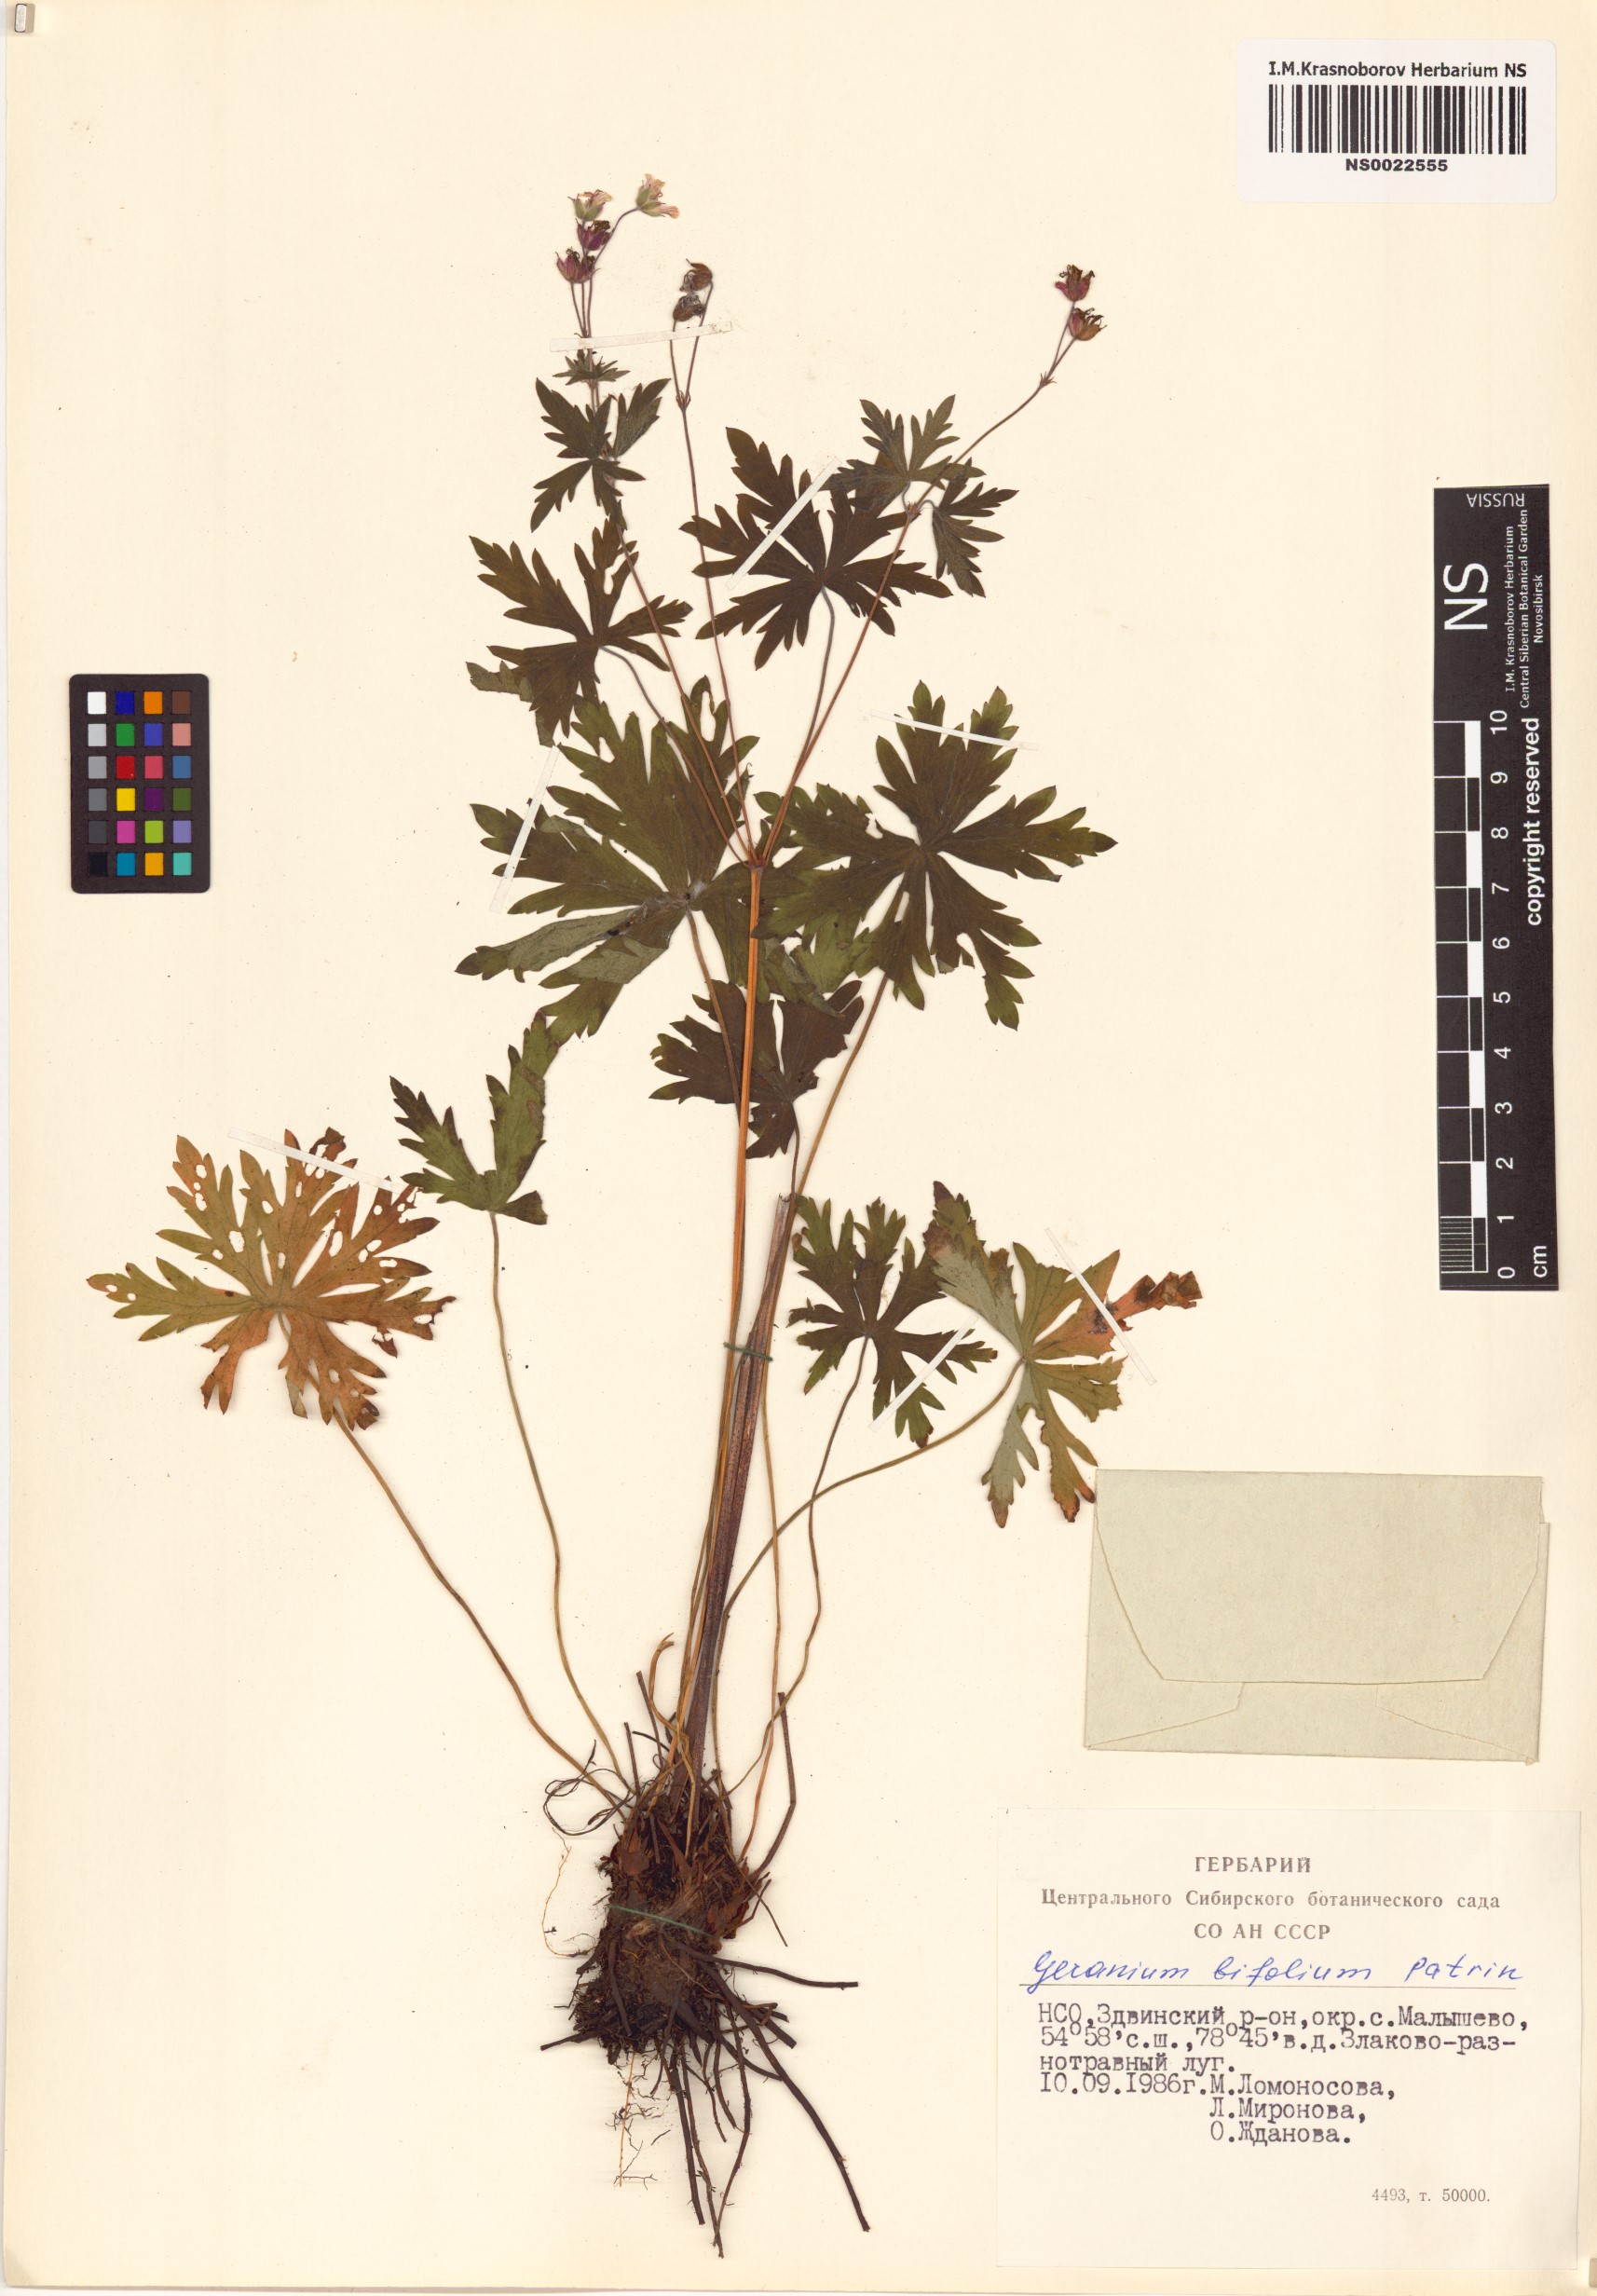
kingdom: Plantae
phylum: Tracheophyta
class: Magnoliopsida
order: Geraniales
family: Geraniaceae
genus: Geranium
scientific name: Geranium pseudosibiricum
